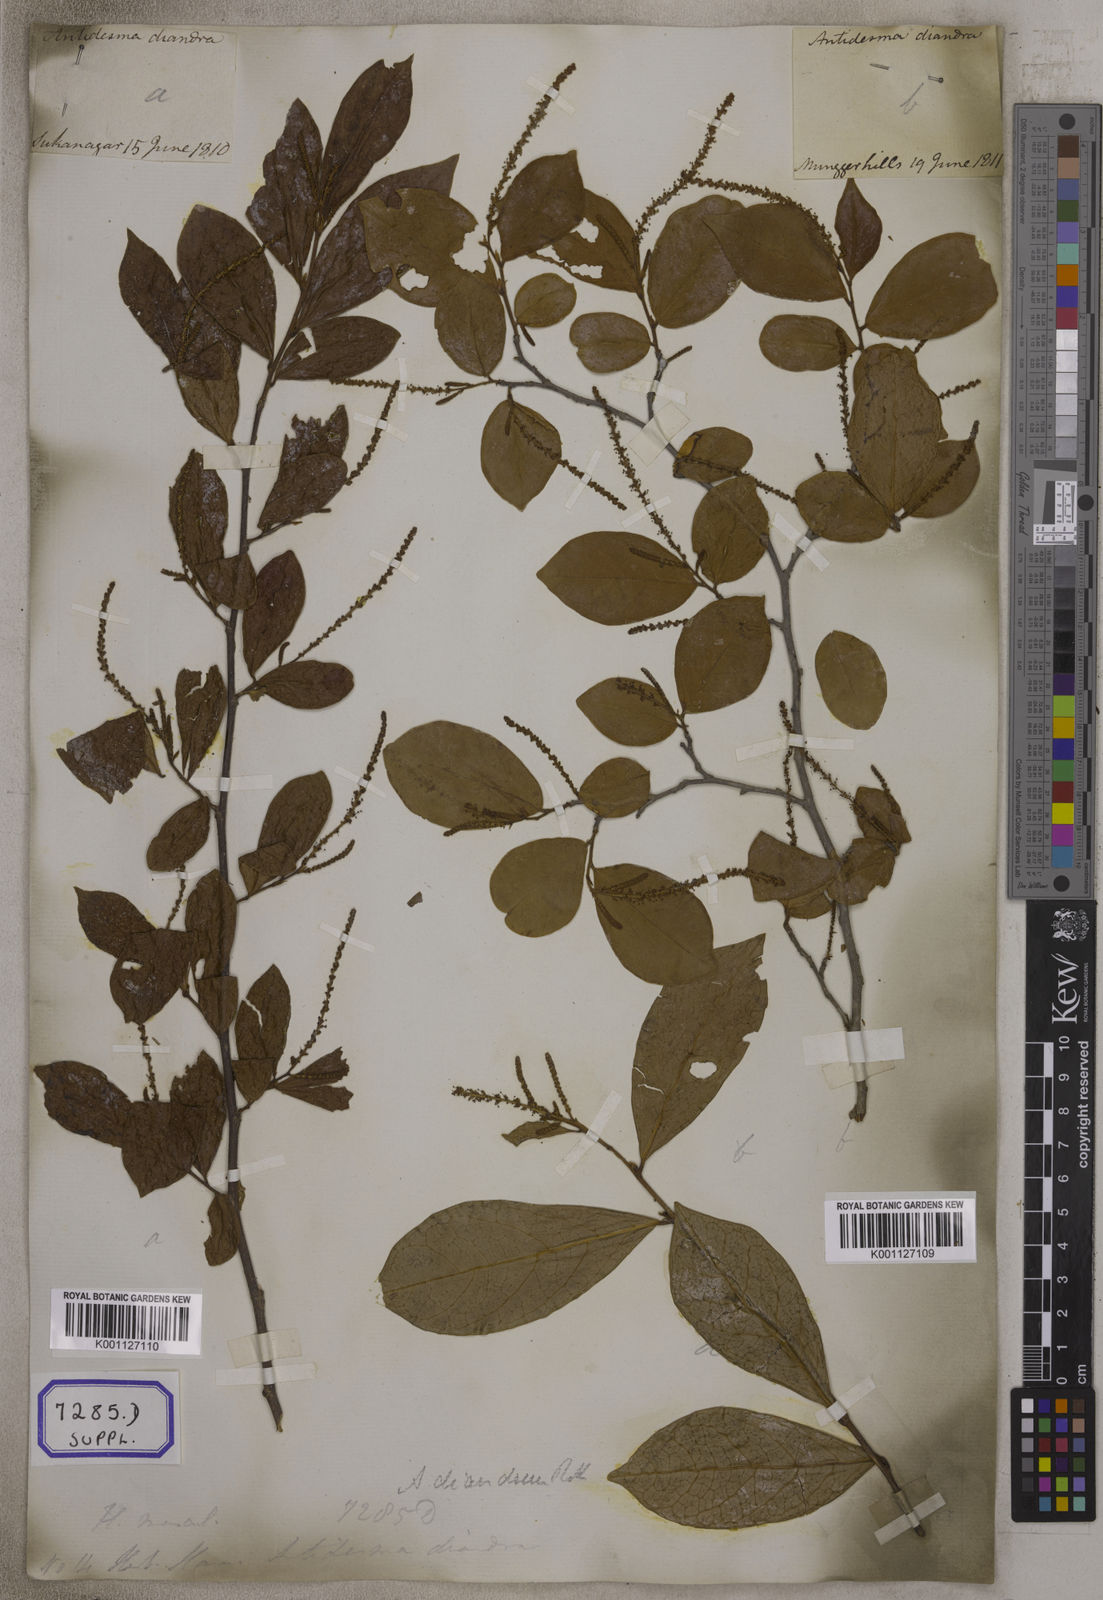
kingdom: Plantae
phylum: Tracheophyta
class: Magnoliopsida
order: Malpighiales
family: Phyllanthaceae
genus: Antidesma
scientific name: Antidesma
